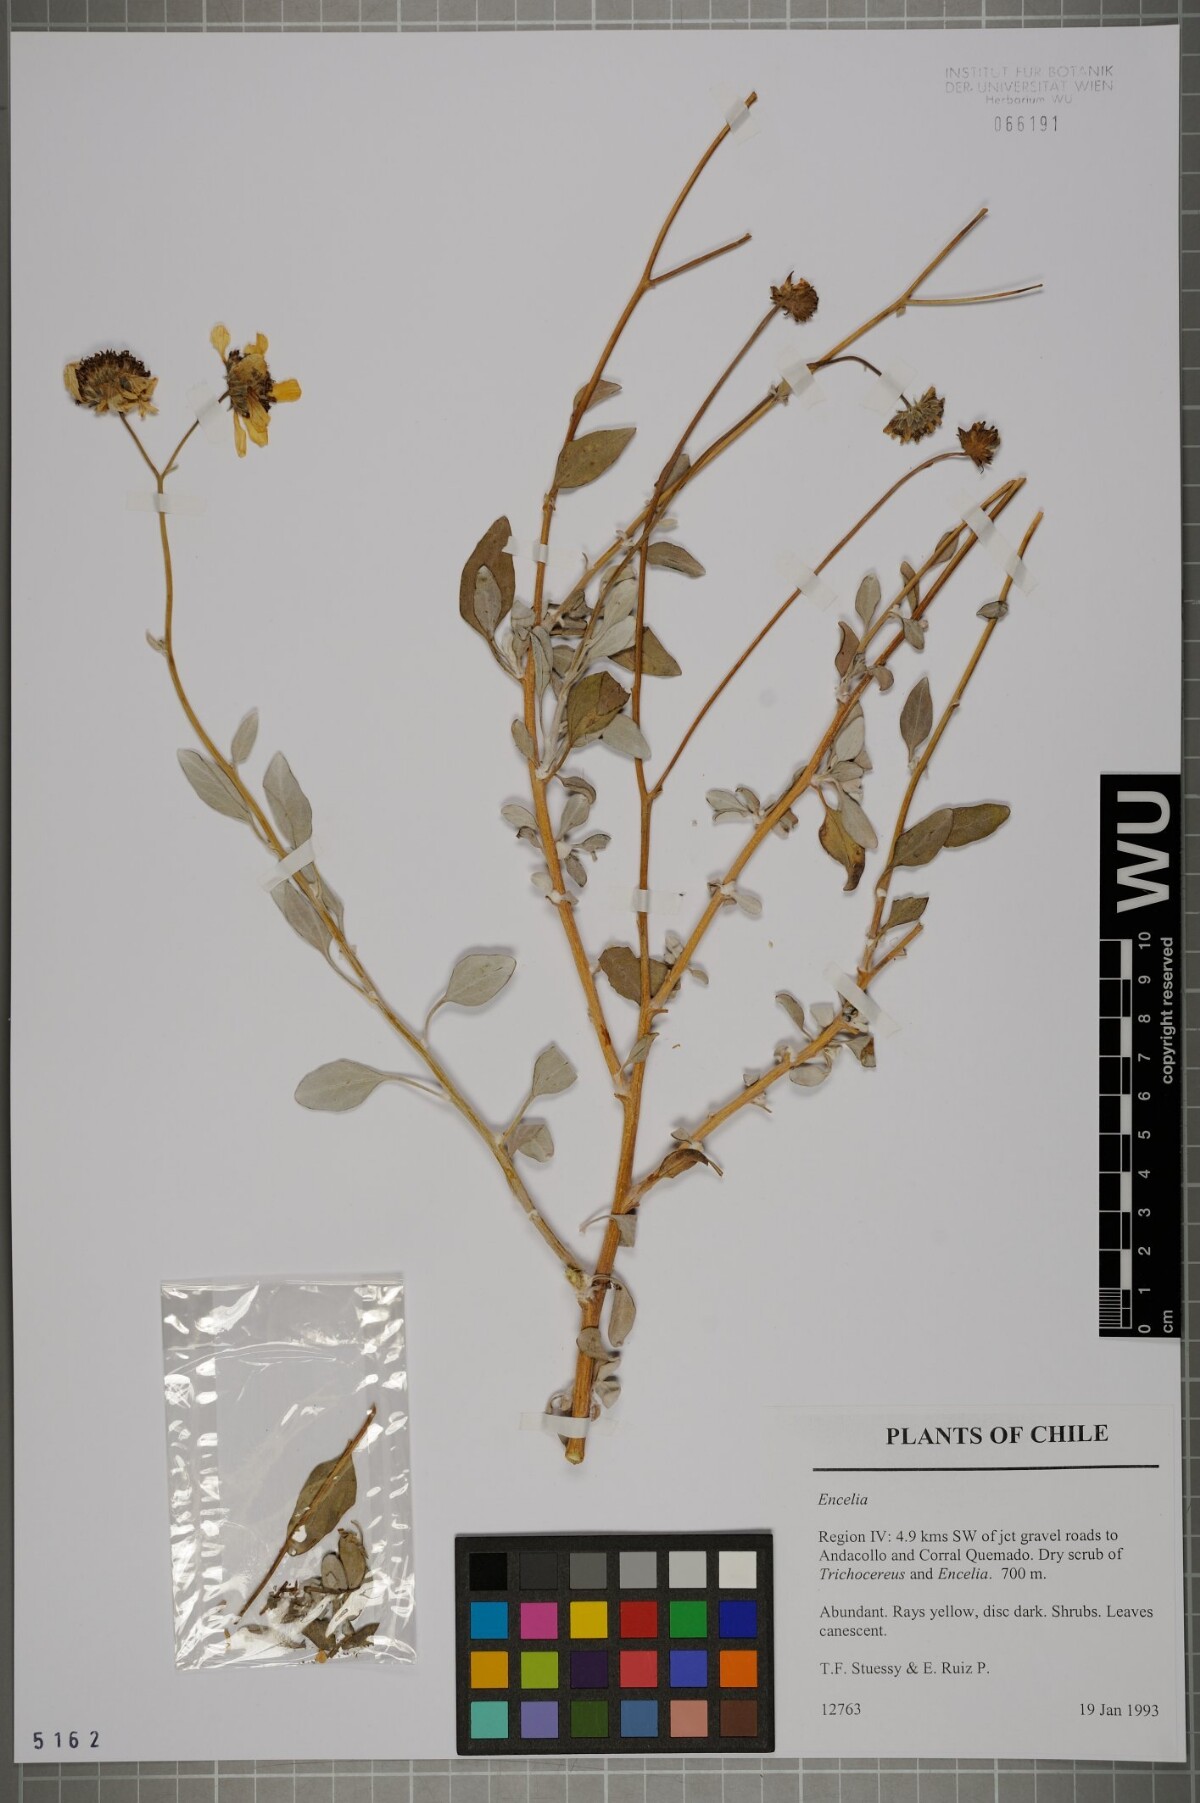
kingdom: Plantae
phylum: Tracheophyta
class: Magnoliopsida
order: Asterales
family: Asteraceae
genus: Encelia
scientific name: Encelia
